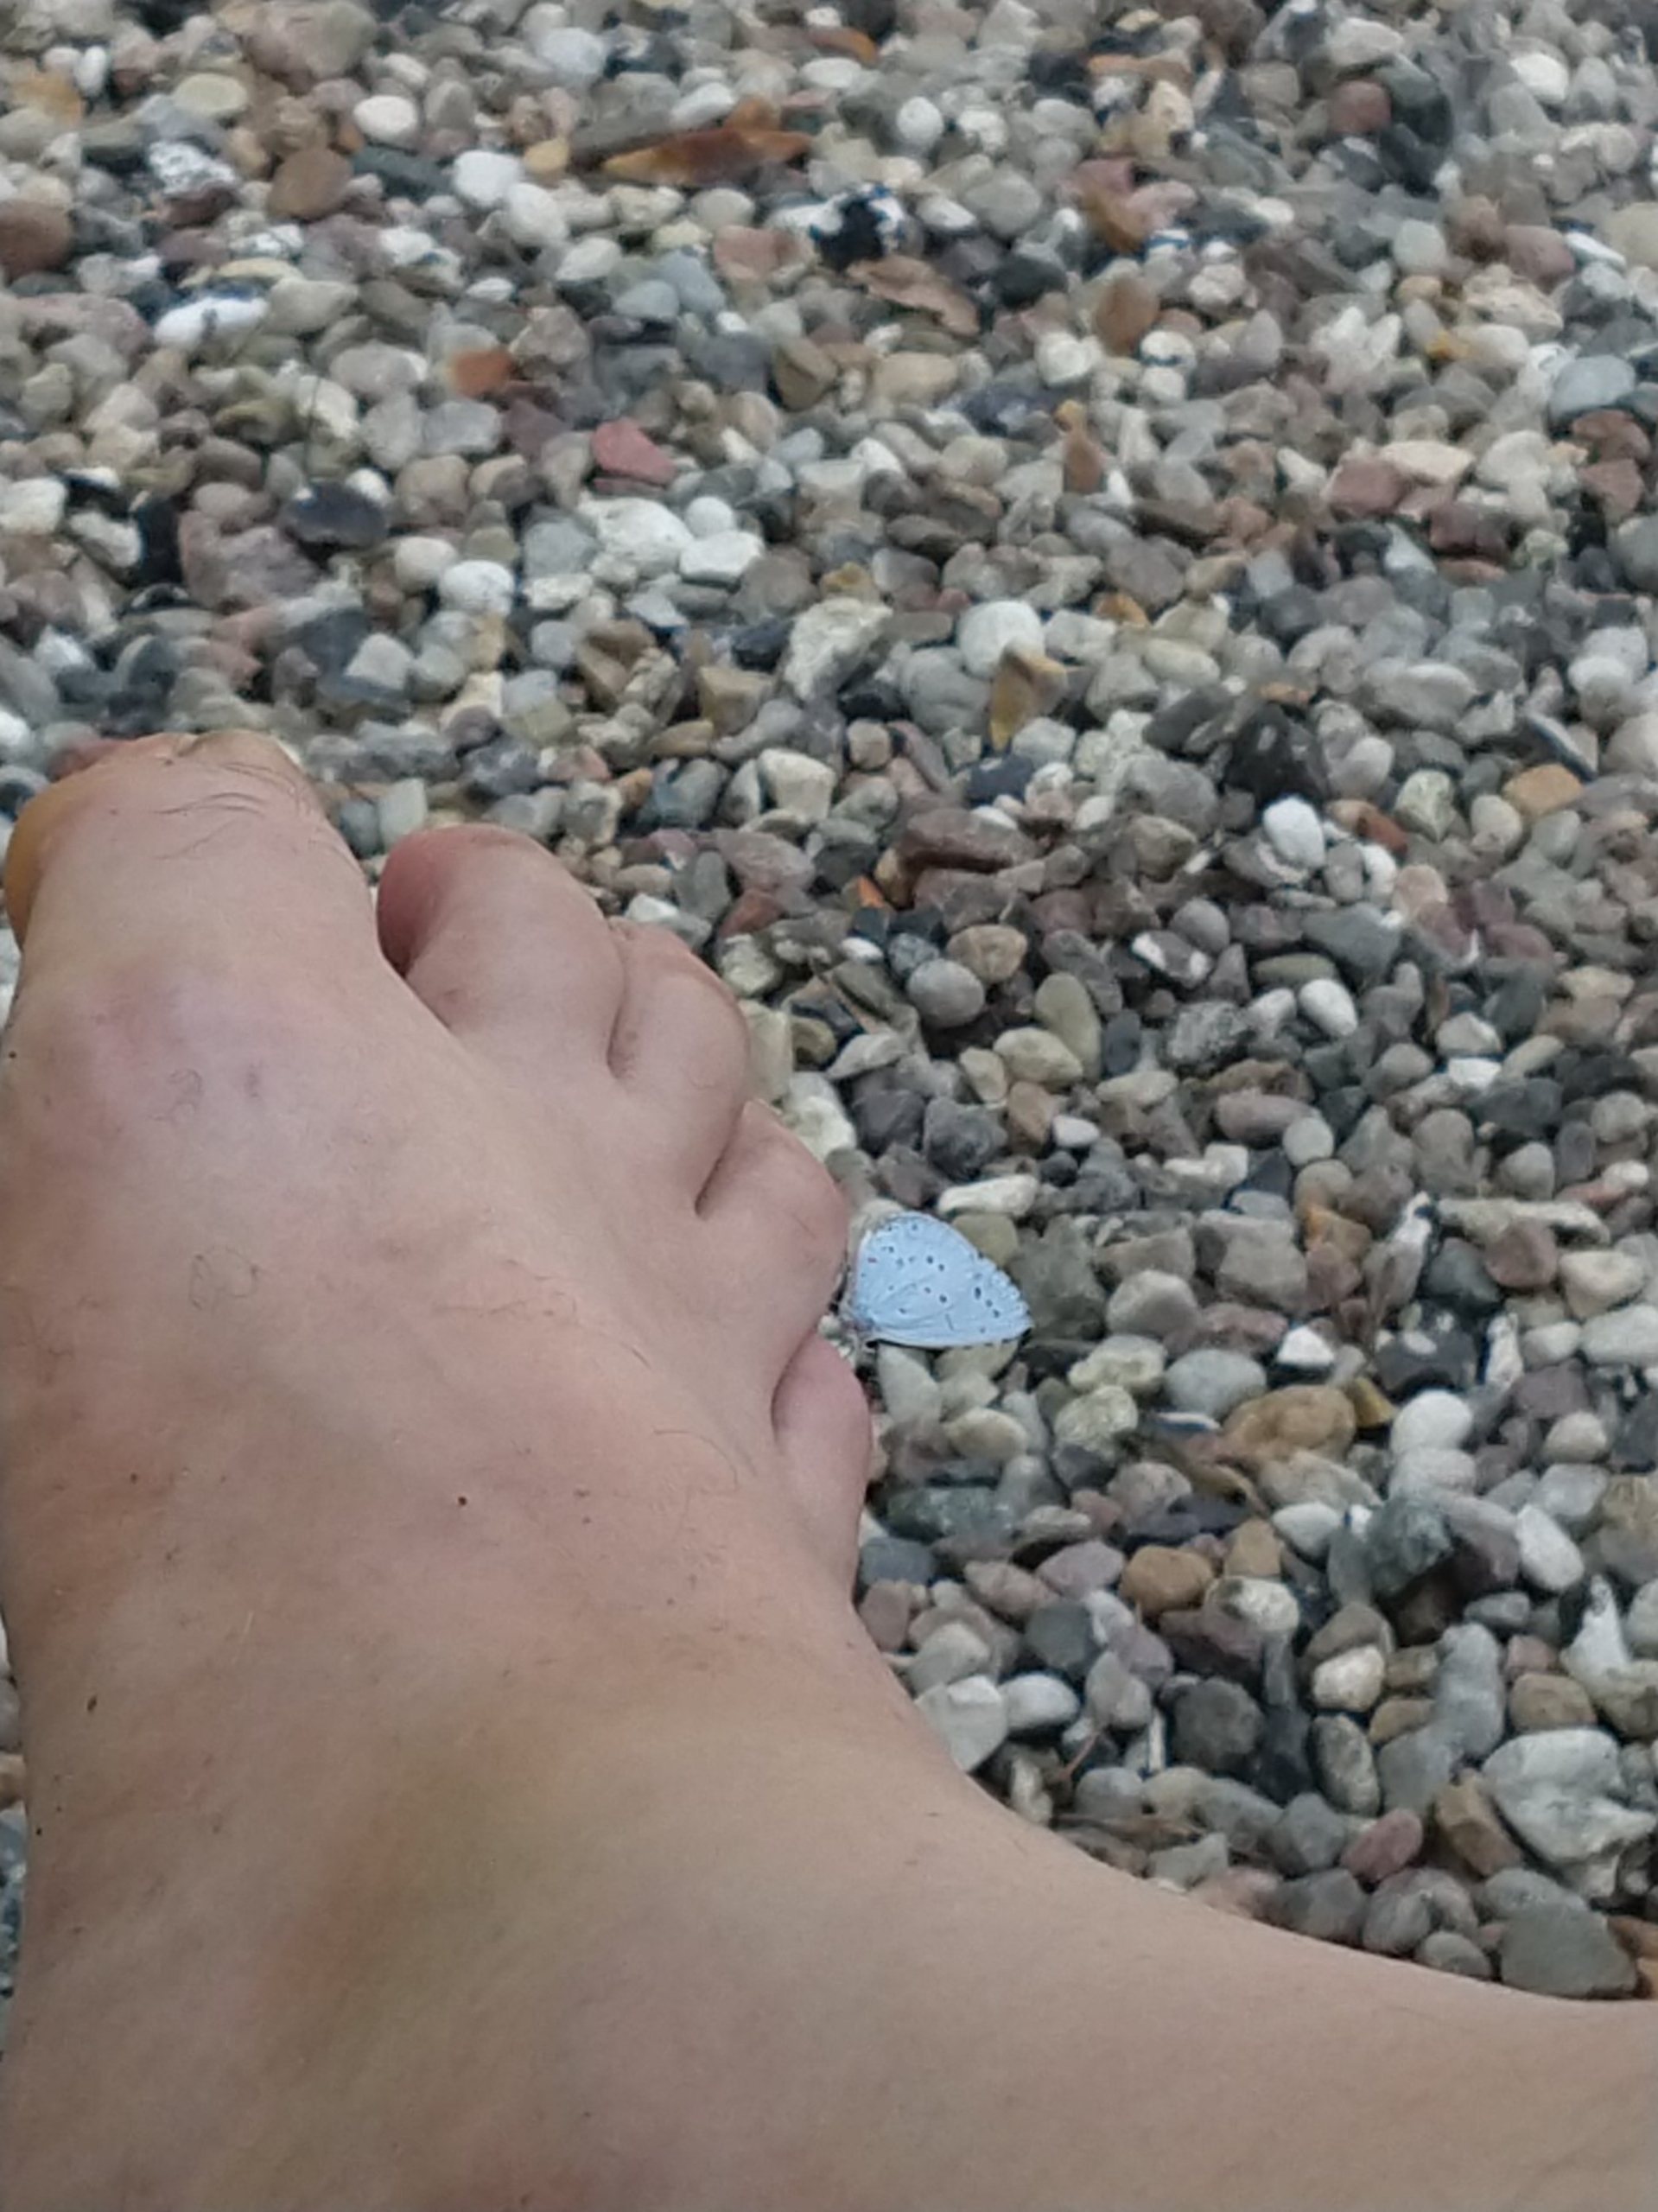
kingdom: Animalia
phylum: Arthropoda
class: Insecta
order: Lepidoptera
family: Lycaenidae
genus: Celastrina
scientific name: Celastrina argiolus
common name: Skovblåfugl
